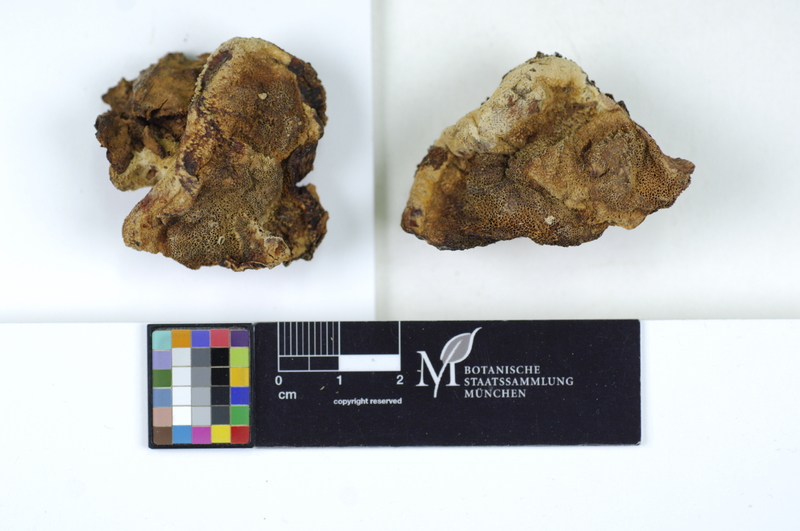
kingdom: Plantae
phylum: Tracheophyta
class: Magnoliopsida
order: Fagales
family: Fagaceae
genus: Quercus
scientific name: Quercus robur
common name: Pedunculate oak
